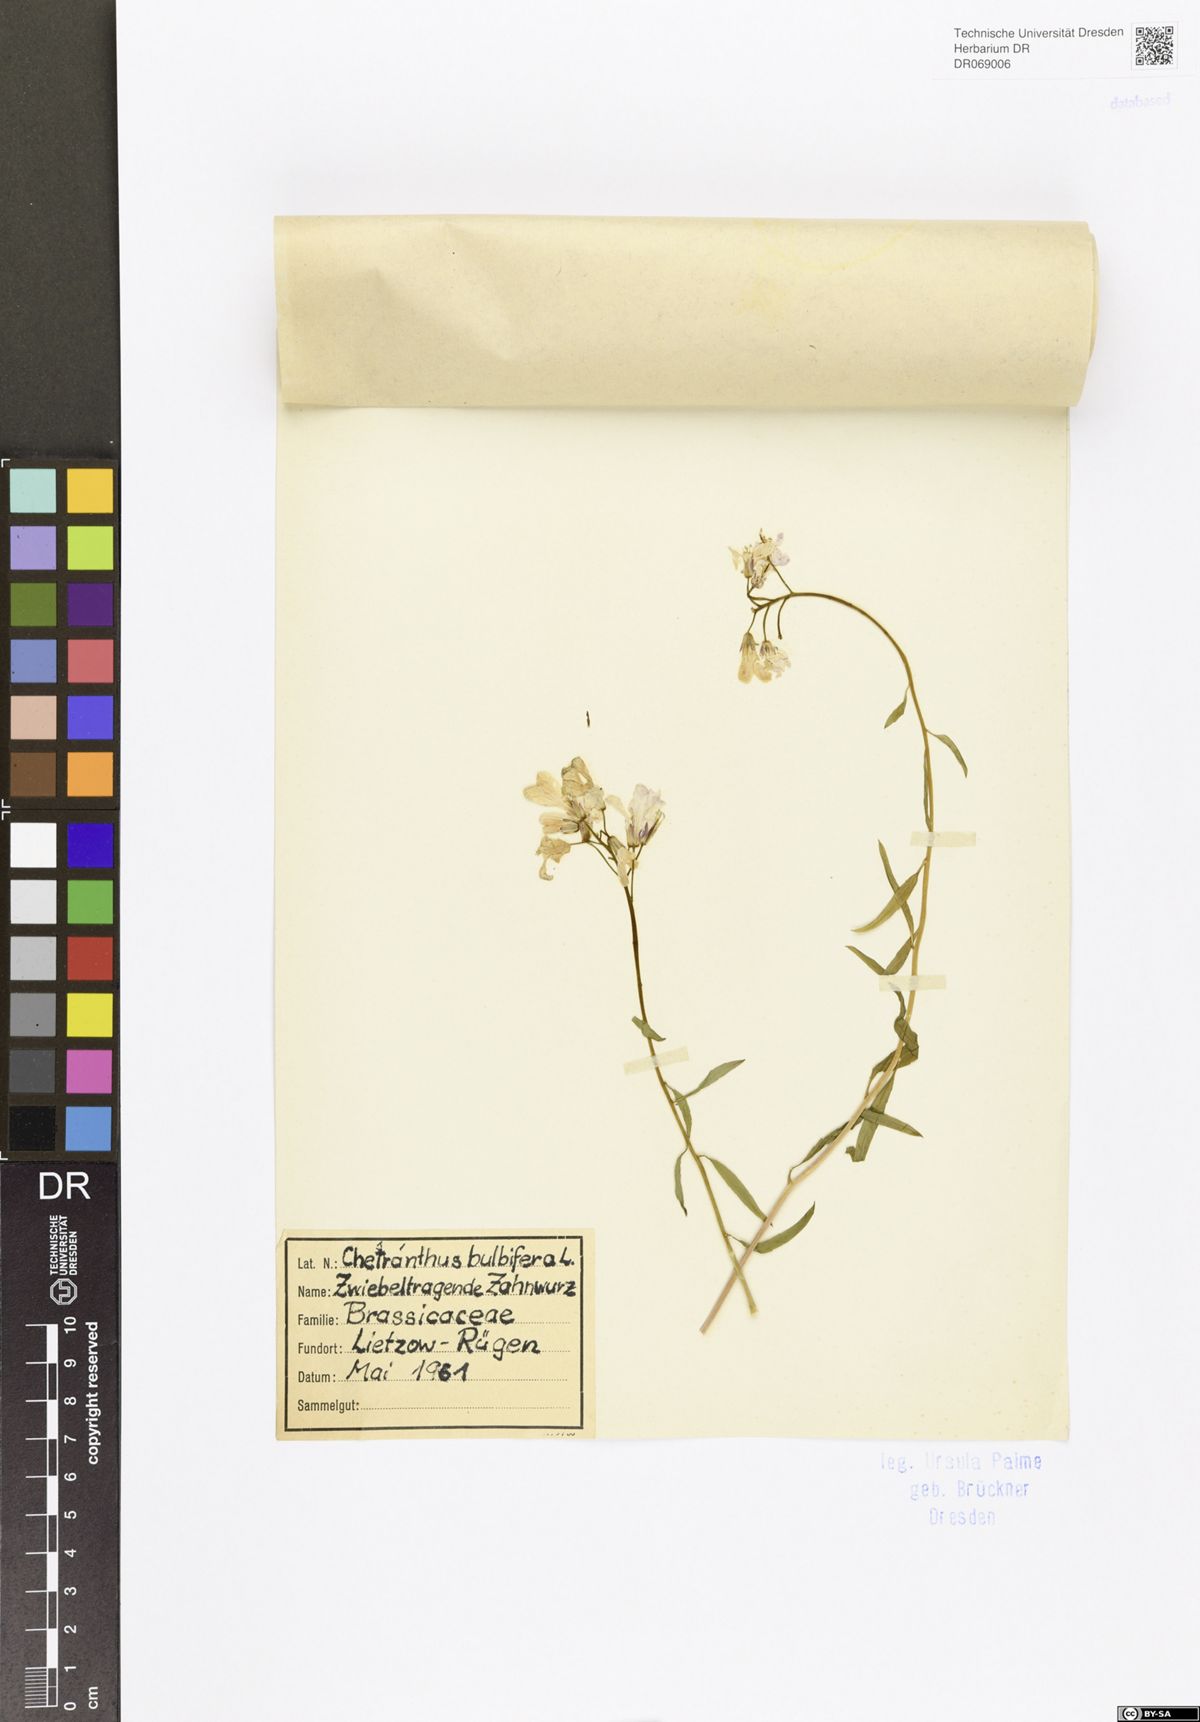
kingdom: Plantae
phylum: Tracheophyta
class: Magnoliopsida
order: Brassicales
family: Brassicaceae
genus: Erysimum
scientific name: Erysimum
